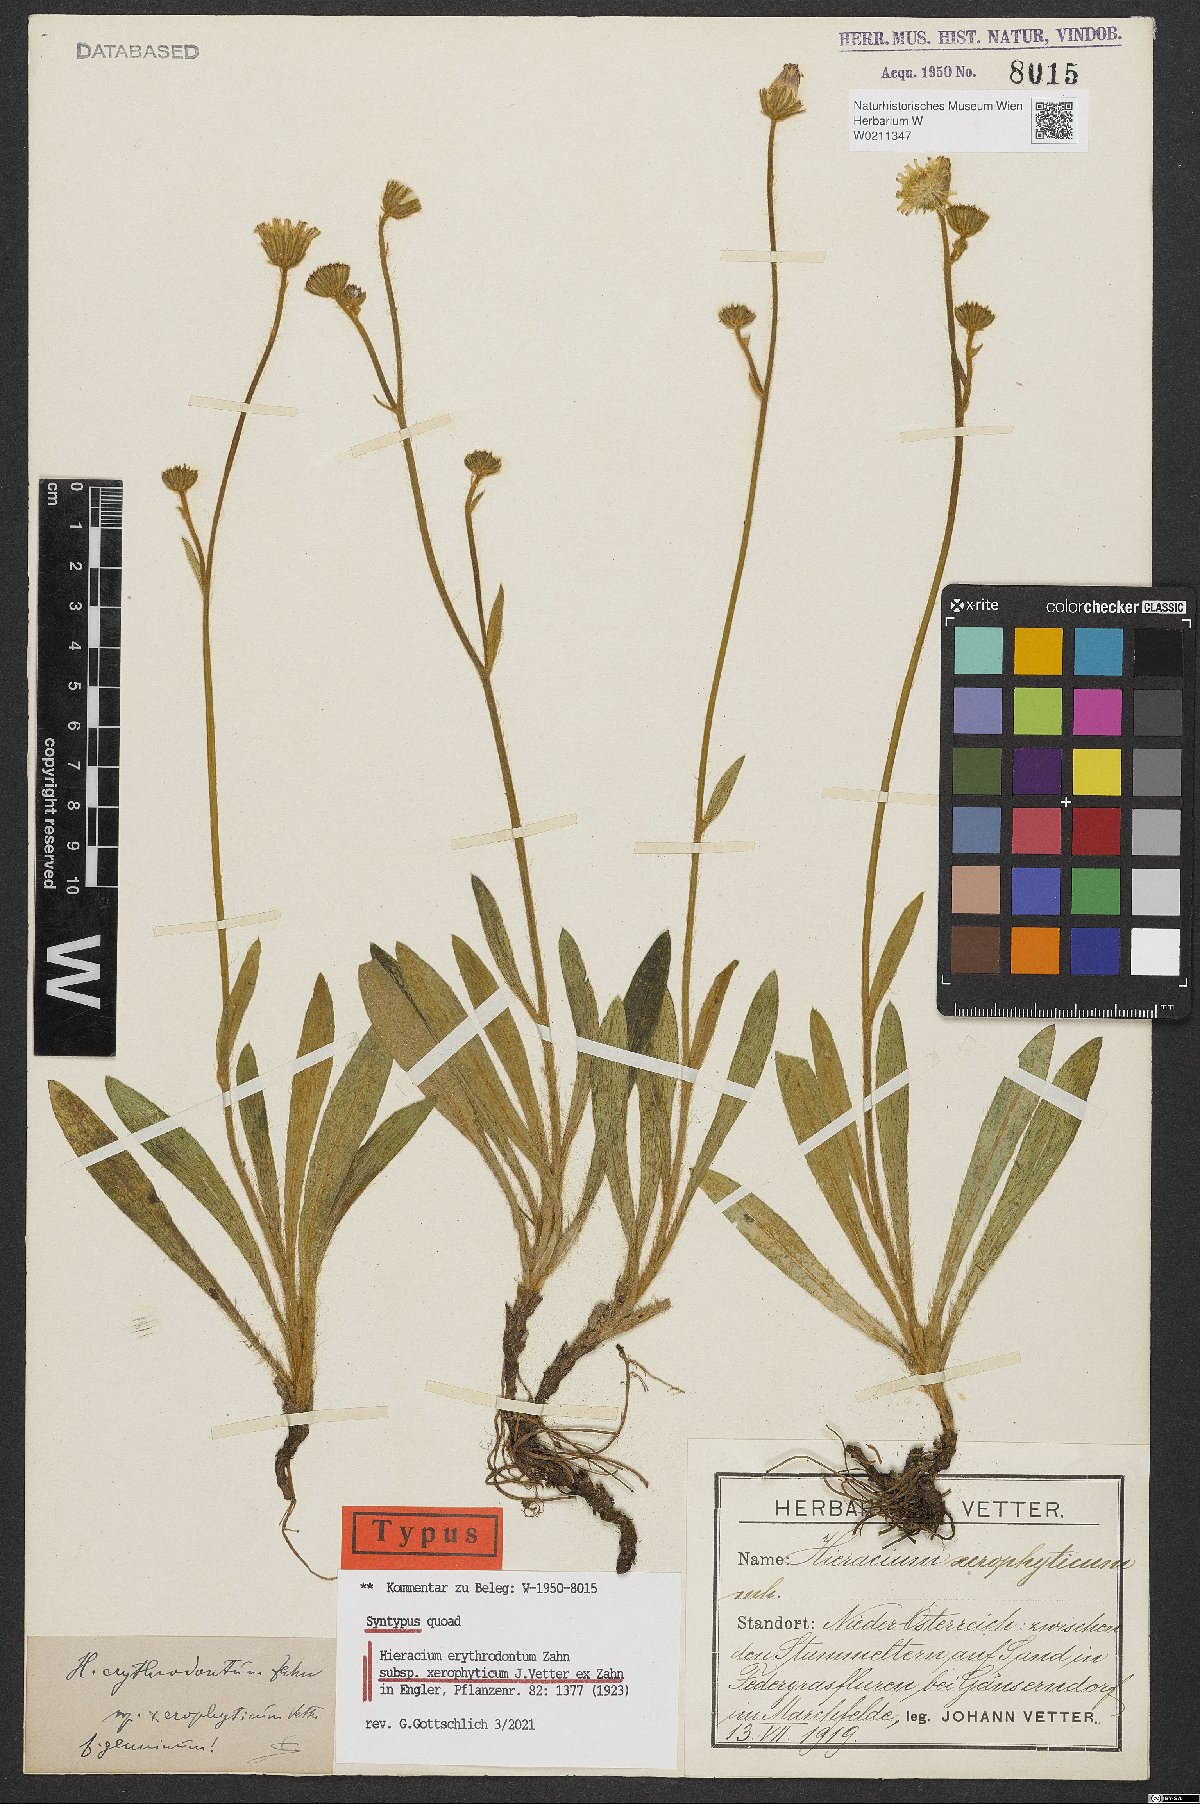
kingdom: Plantae
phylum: Tracheophyta
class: Magnoliopsida
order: Asterales
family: Asteraceae
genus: Pilosella
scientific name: Pilosella erythrodonta
